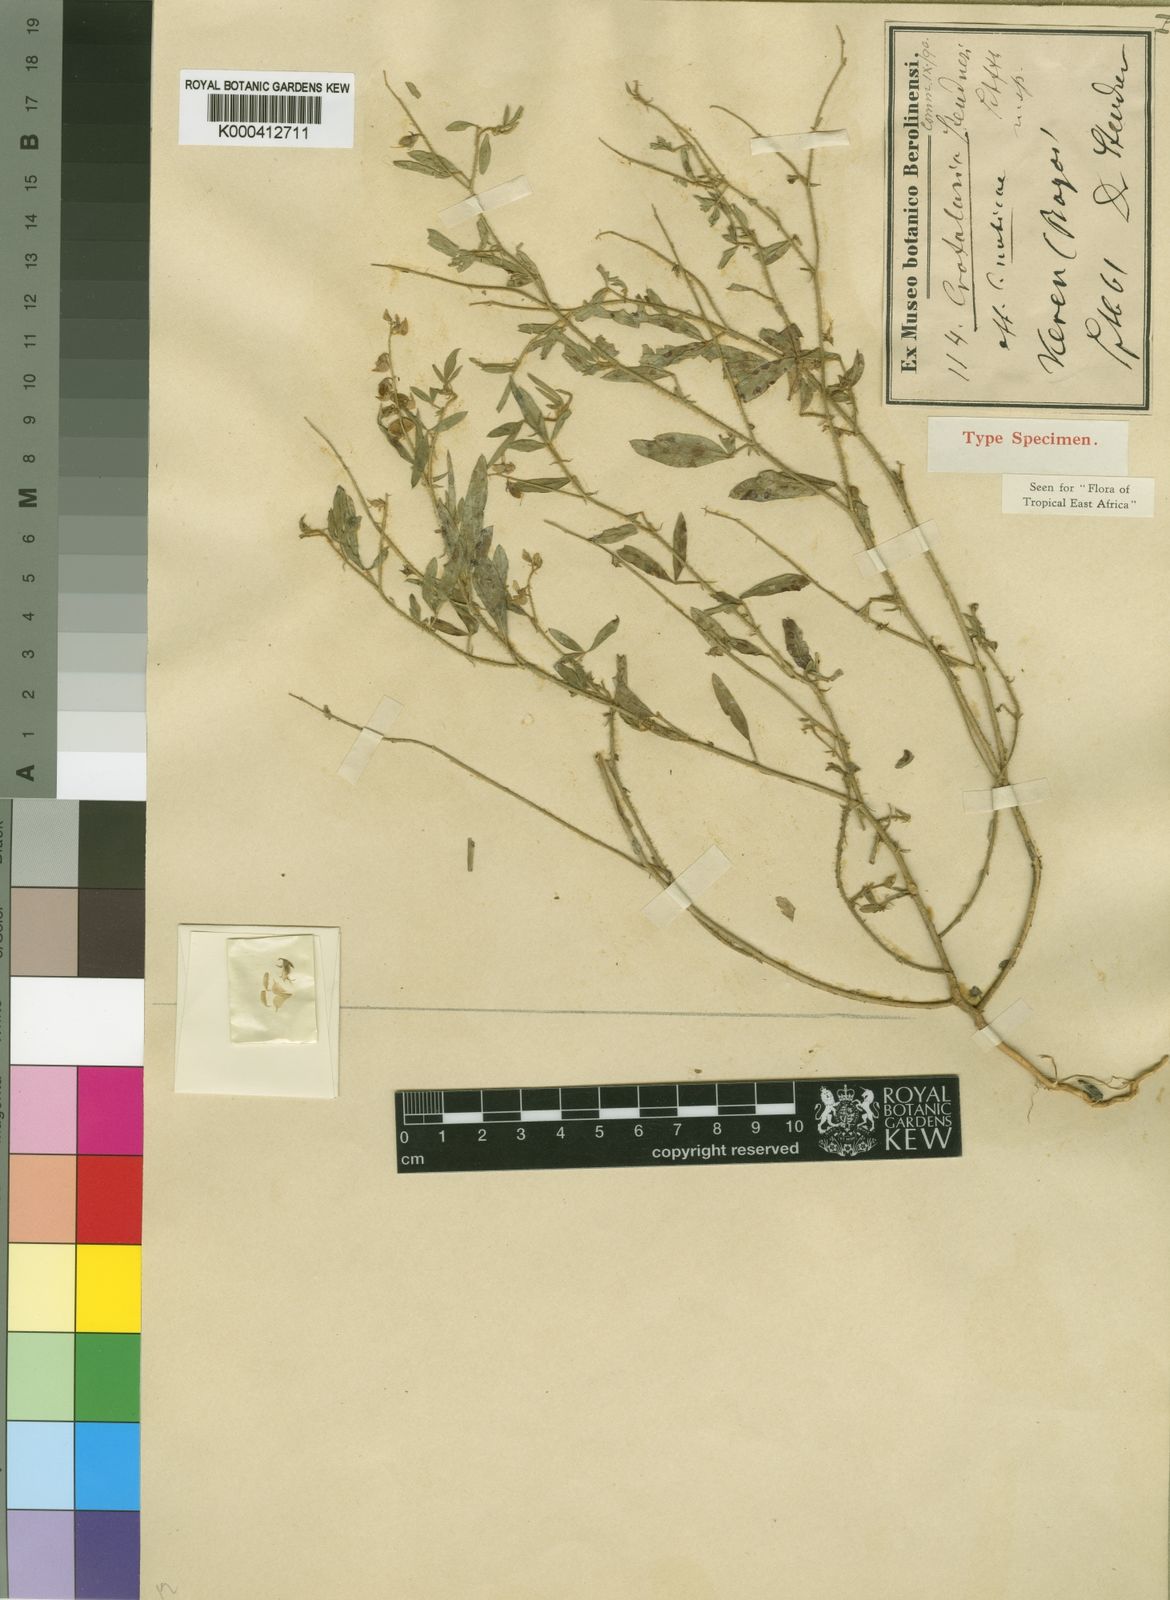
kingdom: Plantae
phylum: Tracheophyta
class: Magnoliopsida
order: Fabales
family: Fabaceae
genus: Crotalaria
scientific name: Crotalaria steudneri
